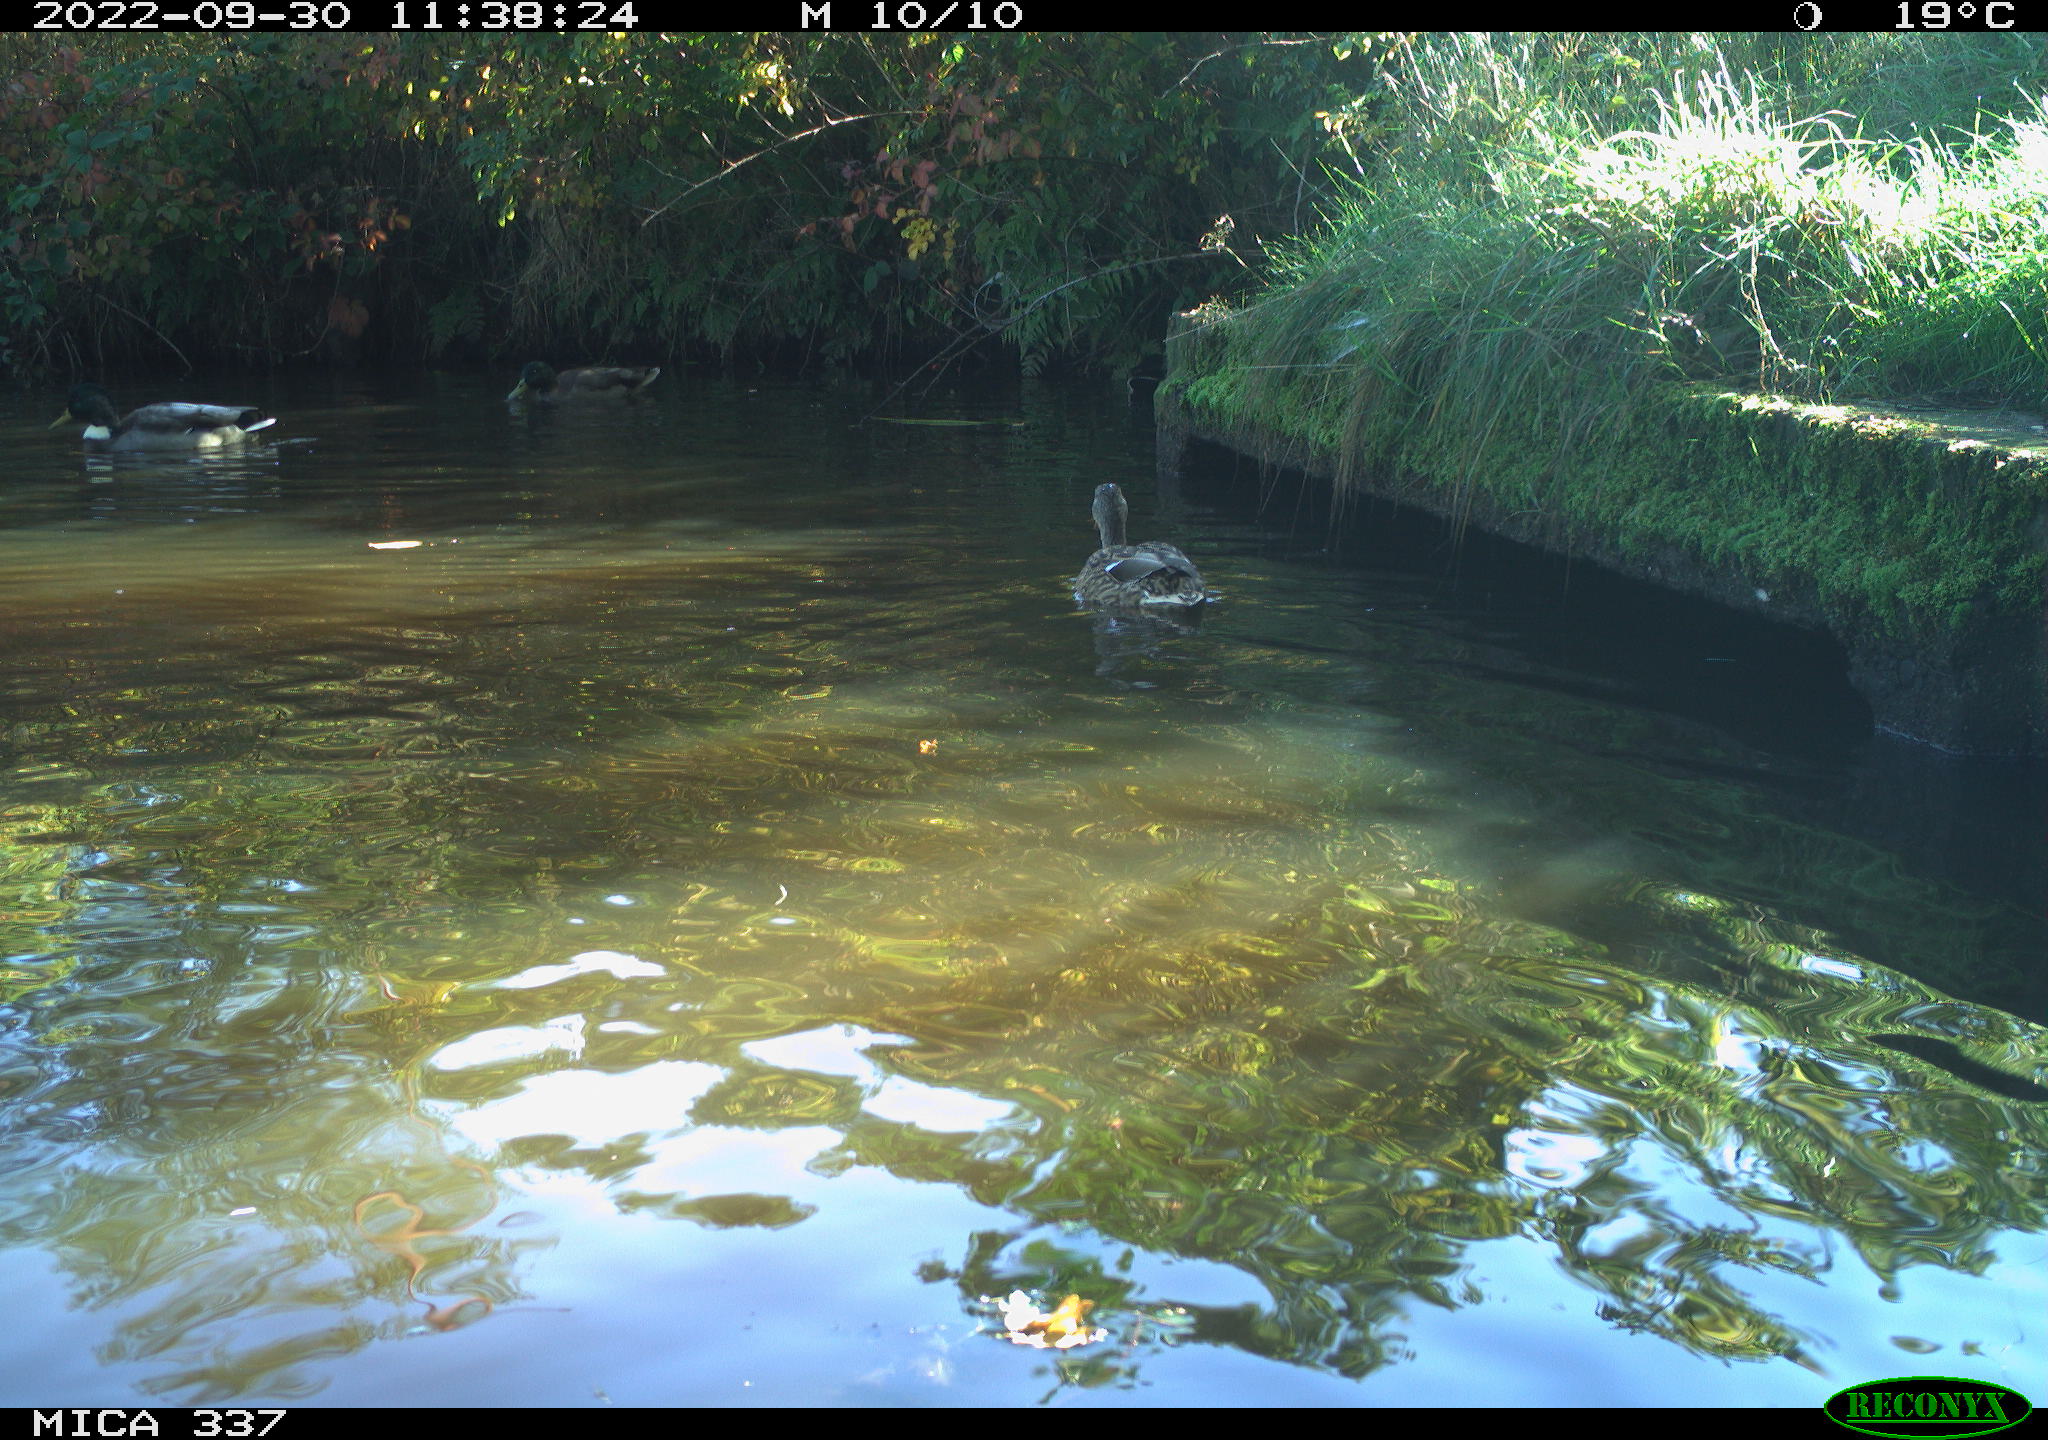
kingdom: Animalia
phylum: Chordata
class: Aves
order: Anseriformes
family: Anatidae
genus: Anas
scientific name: Anas platyrhynchos
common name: Mallard
